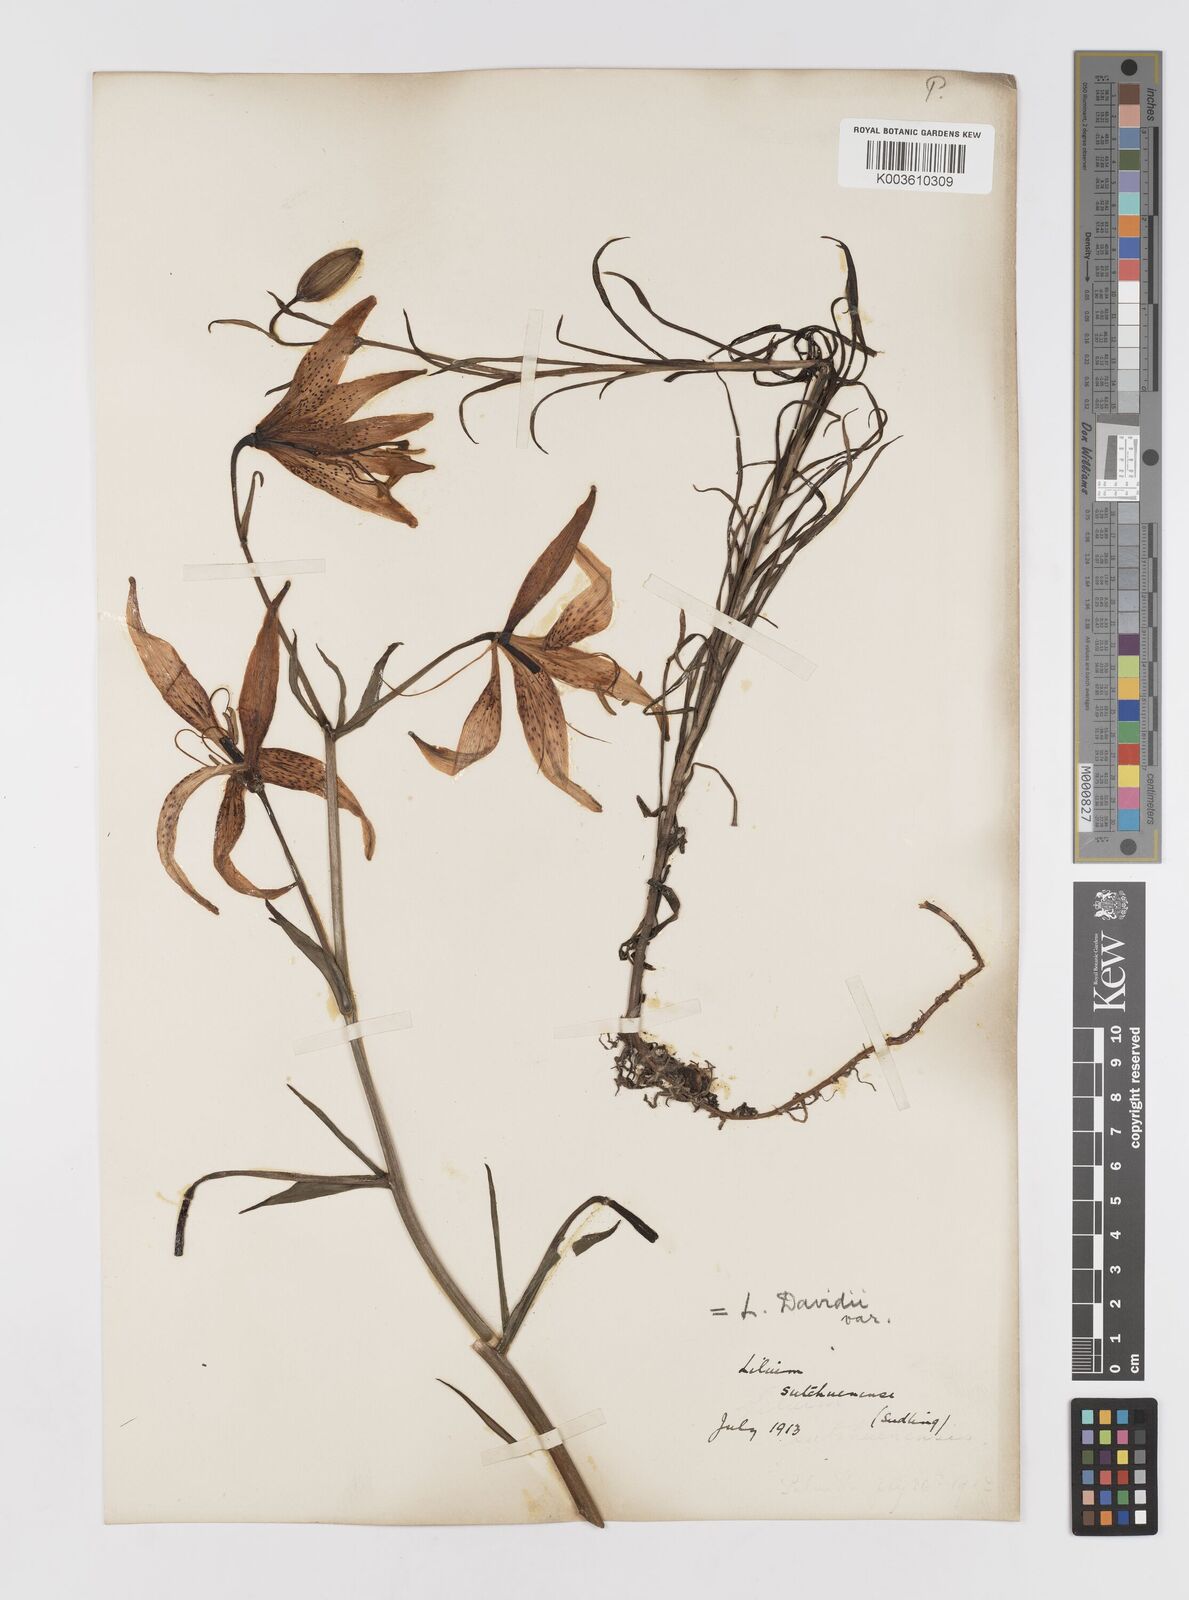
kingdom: Plantae
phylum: Tracheophyta
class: Liliopsida
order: Liliales
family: Liliaceae
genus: Lilium
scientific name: Lilium davidii
